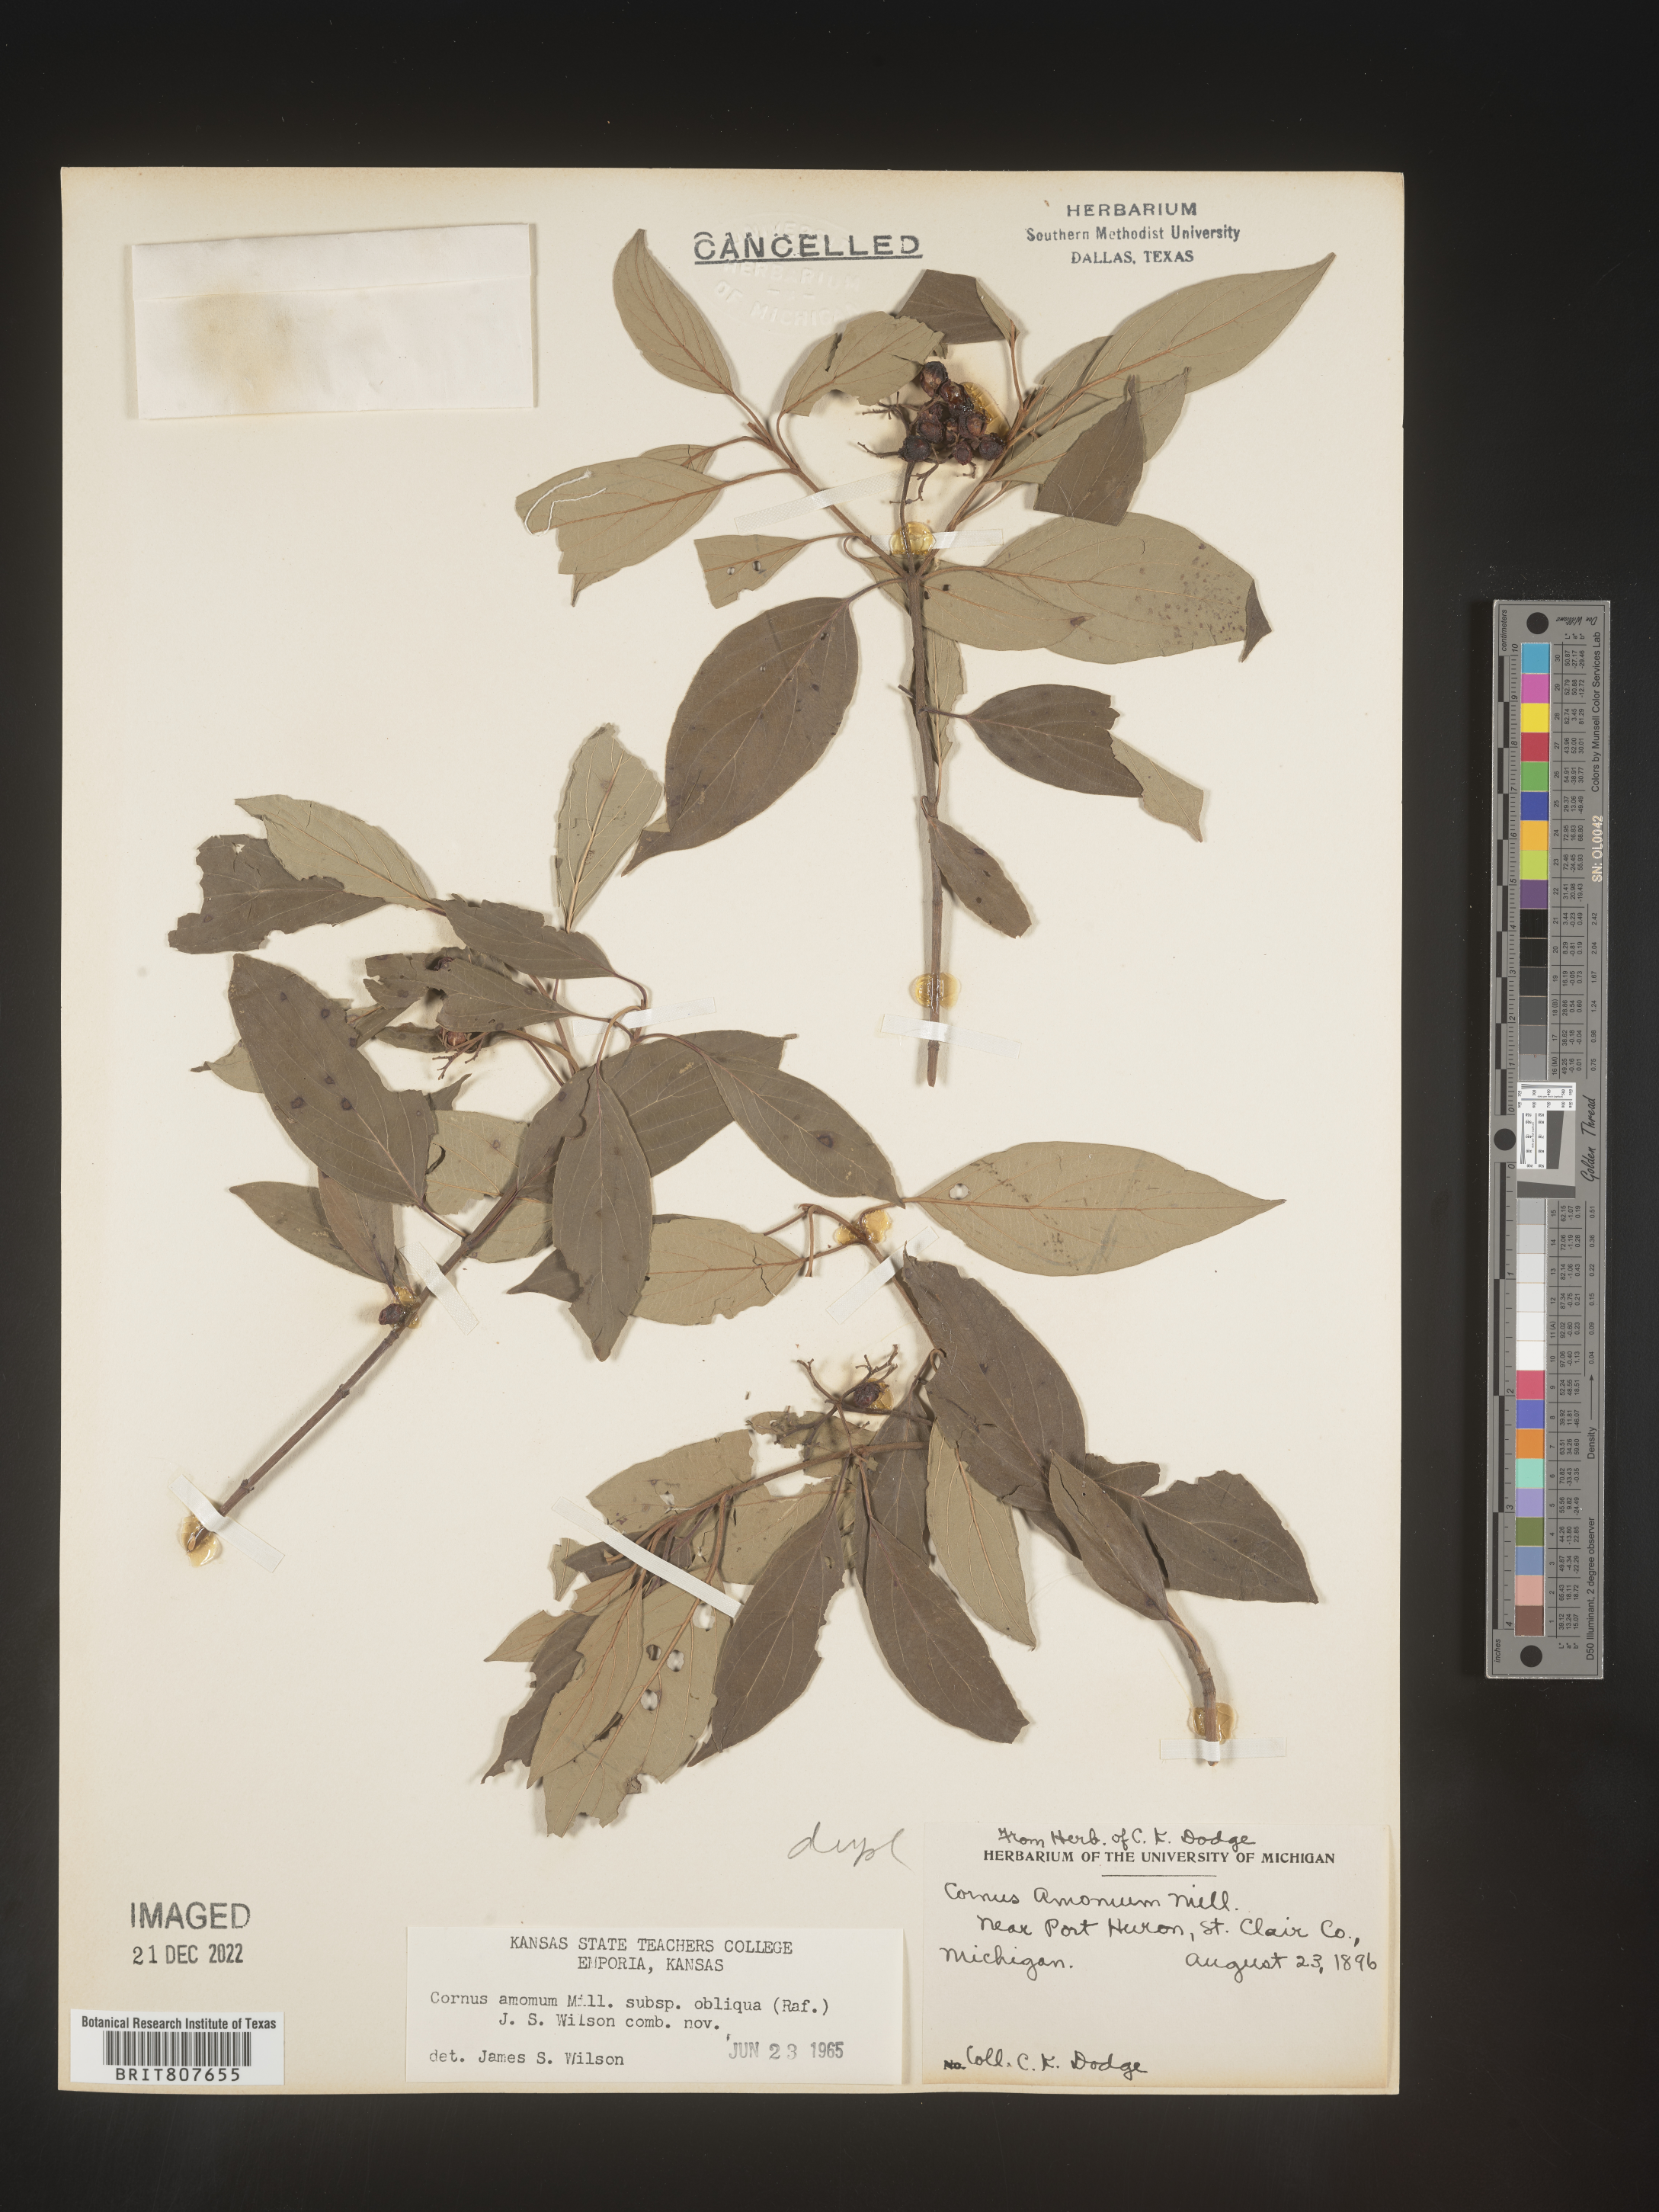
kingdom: Plantae
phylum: Tracheophyta
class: Magnoliopsida
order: Cornales
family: Cornaceae
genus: Cornus
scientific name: Cornus obliqua
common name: Pale dogwood
